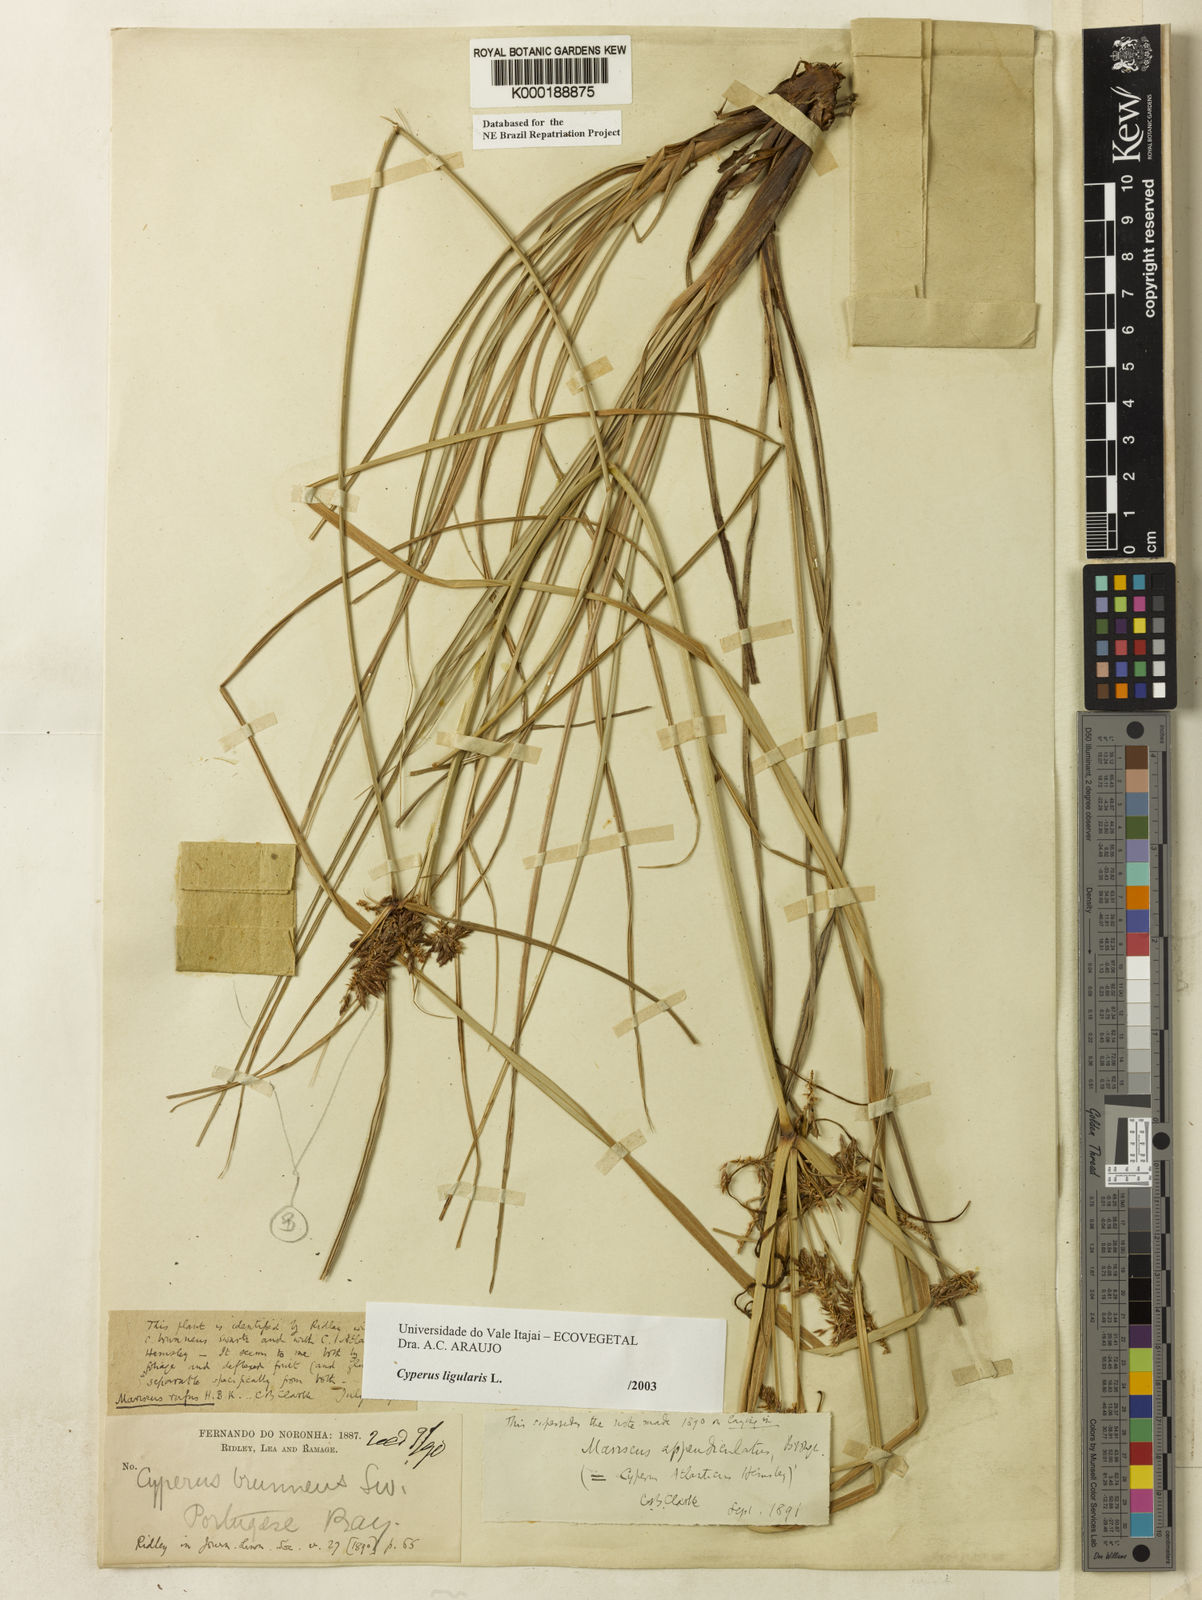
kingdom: Plantae
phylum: Tracheophyta
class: Liliopsida
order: Poales
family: Cyperaceae
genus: Cyperus
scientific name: Cyperus ligularis
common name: Swamp flat sedge
